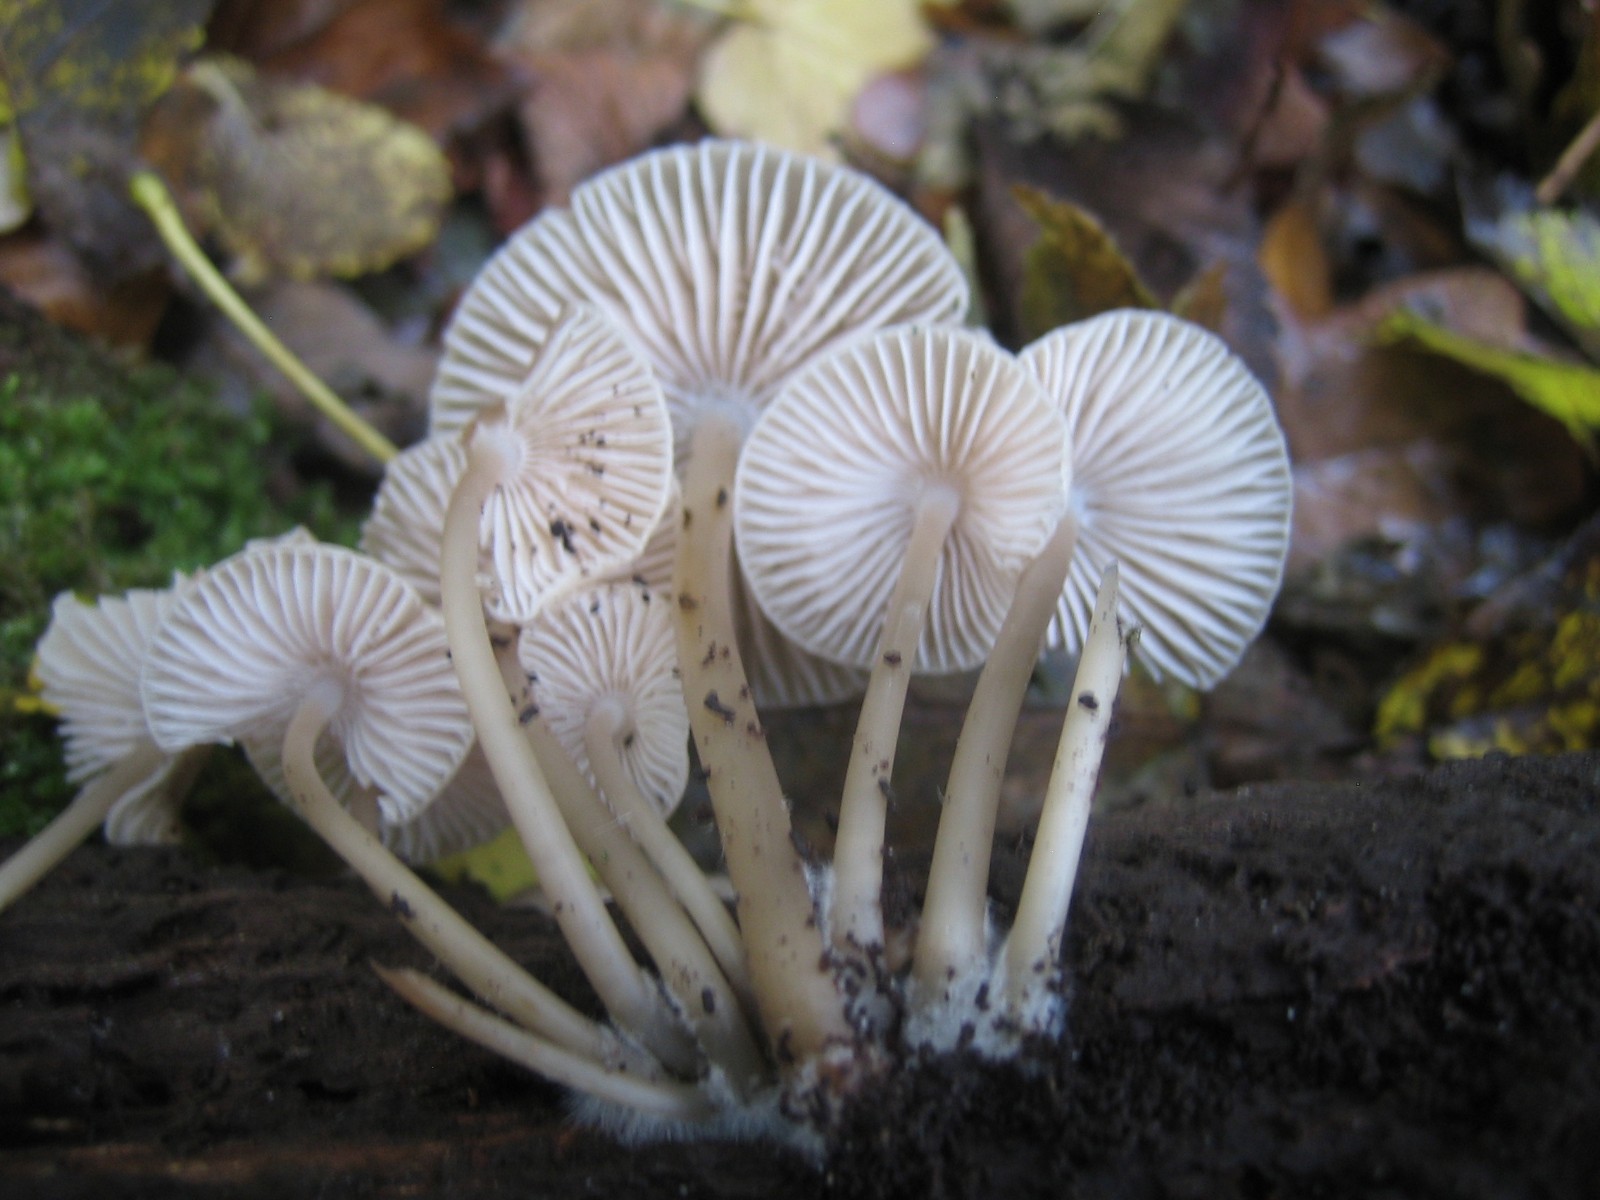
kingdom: Fungi
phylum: Basidiomycota
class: Agaricomycetes
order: Agaricales
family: Mycenaceae
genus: Mycena
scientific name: Mycena galericulata
